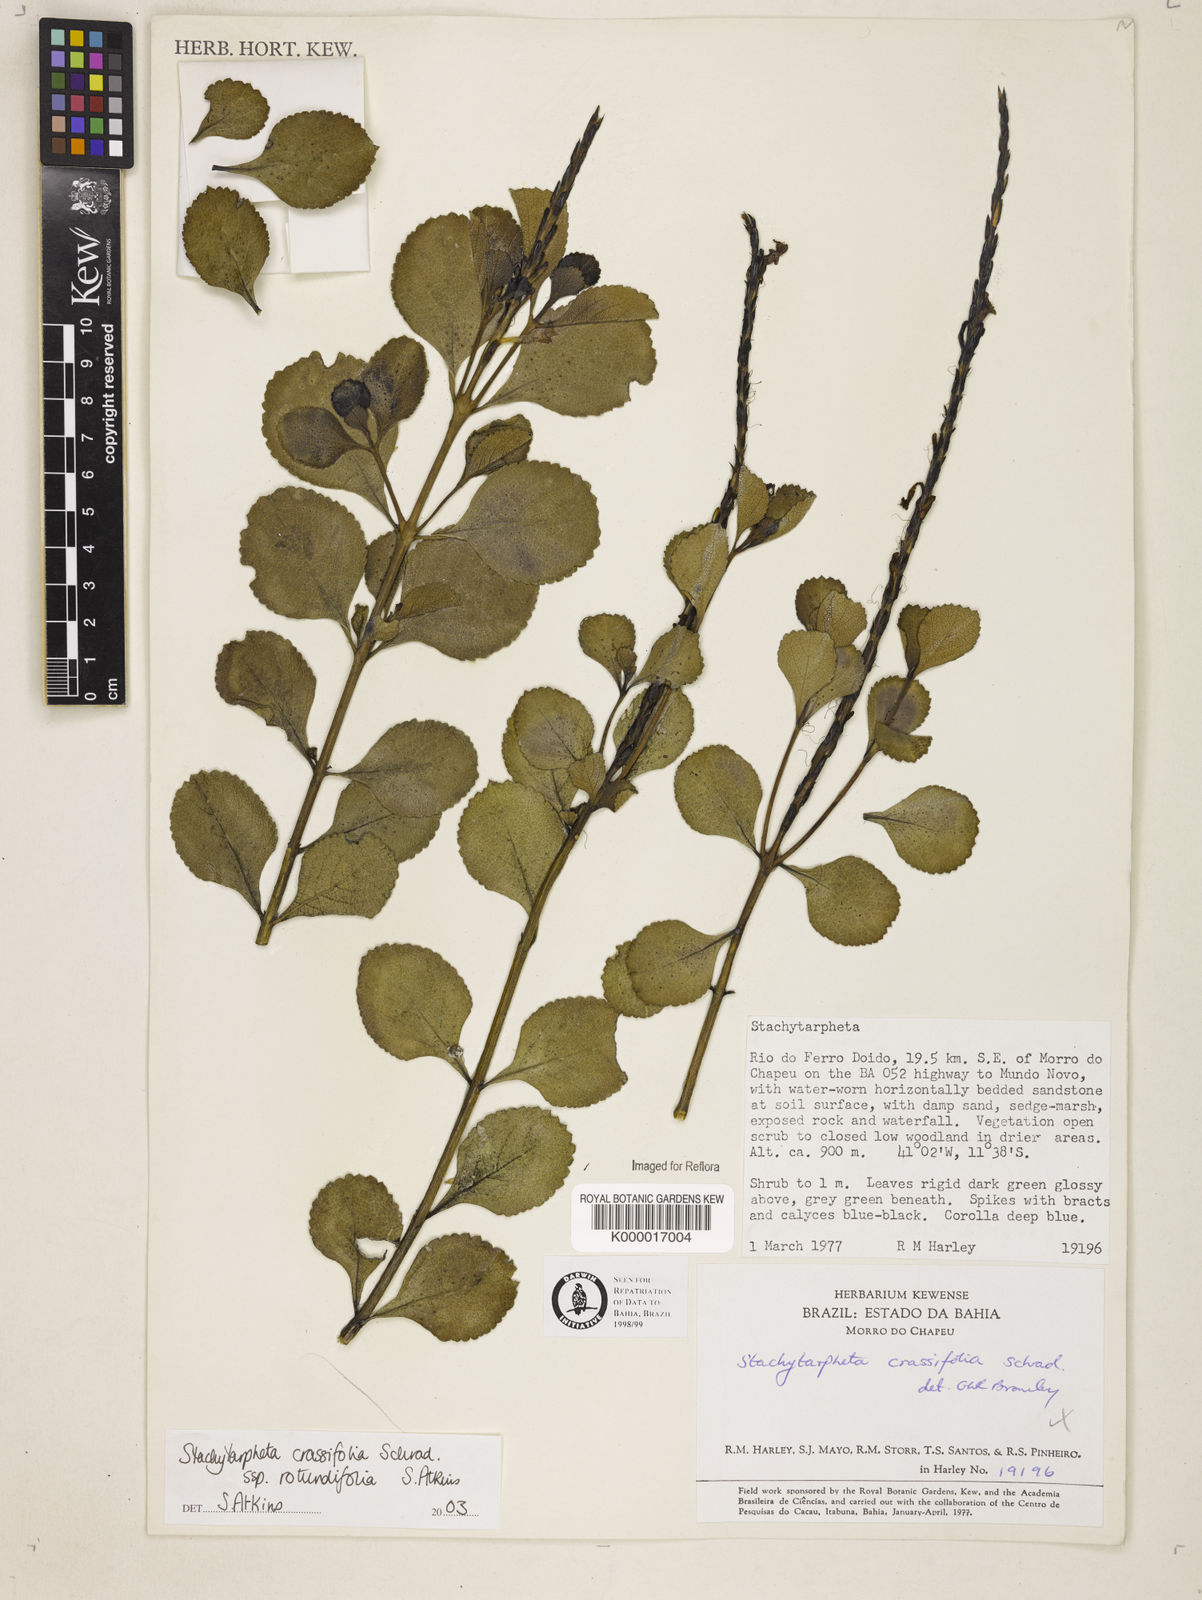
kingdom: Plantae
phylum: Tracheophyta
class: Magnoliopsida
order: Lamiales
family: Verbenaceae
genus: Stachytarpheta
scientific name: Stachytarpheta crassifolia
